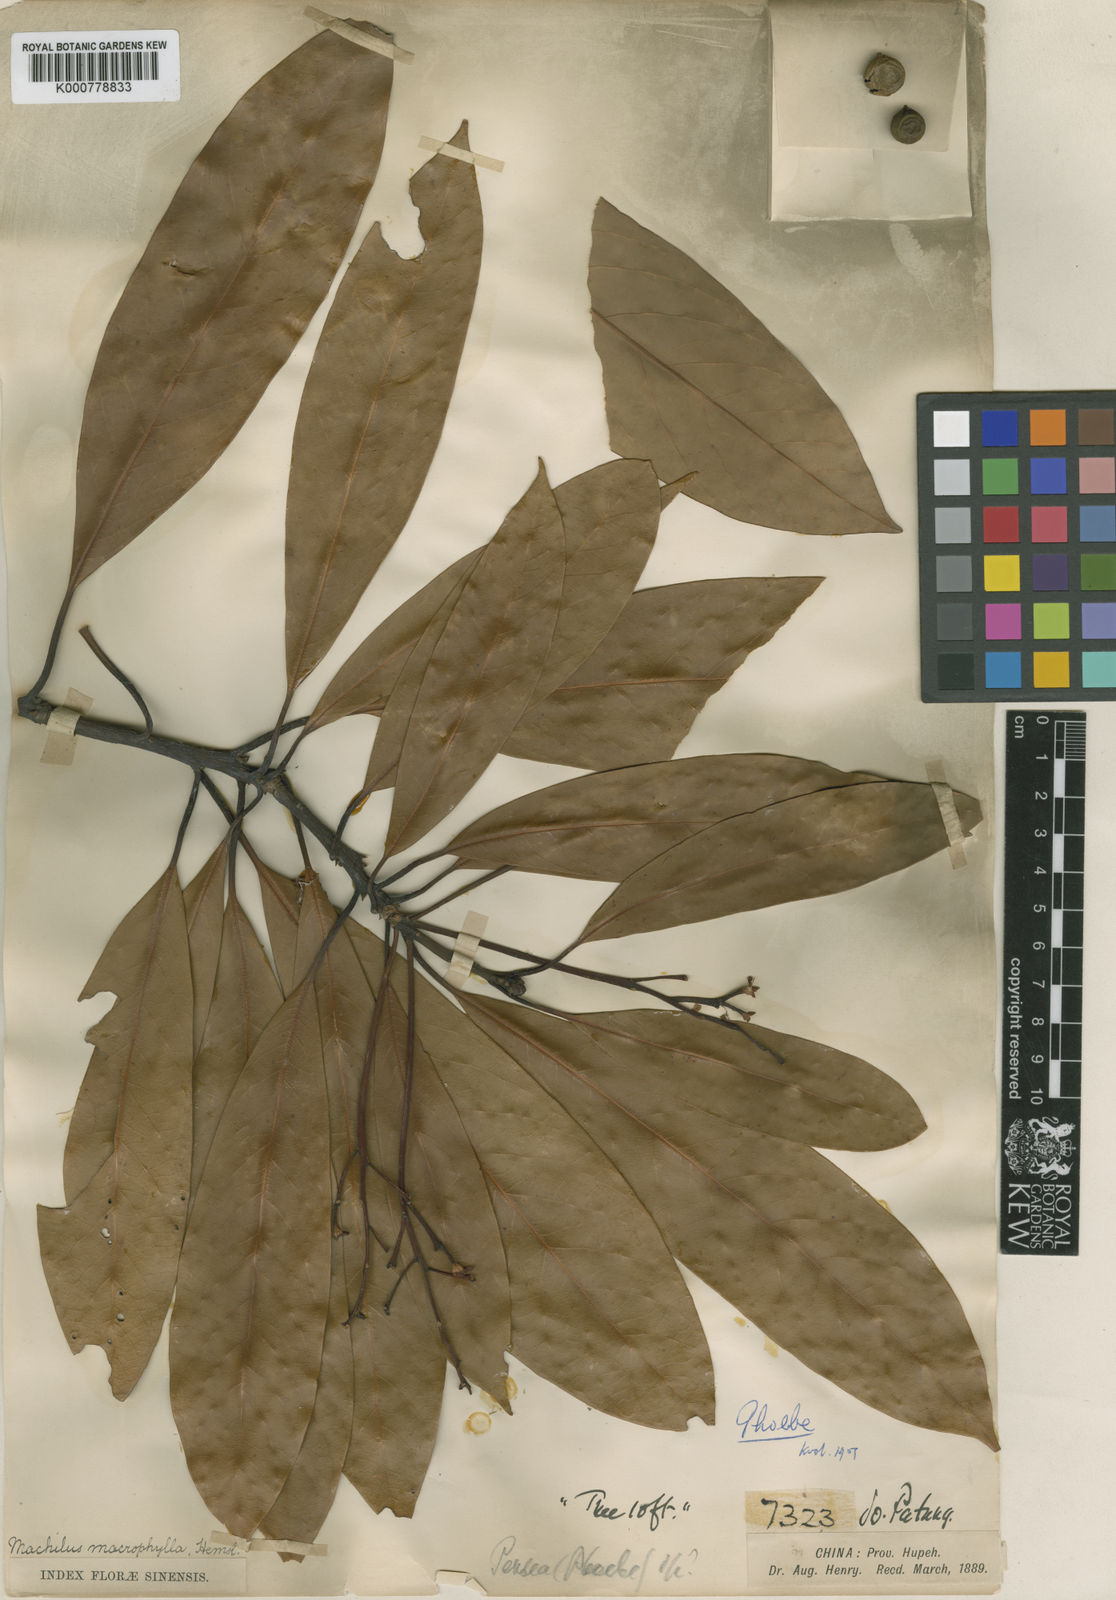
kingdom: Plantae
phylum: Tracheophyta
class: Magnoliopsida
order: Laurales
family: Lauraceae
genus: Machilus
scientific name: Machilus montana
